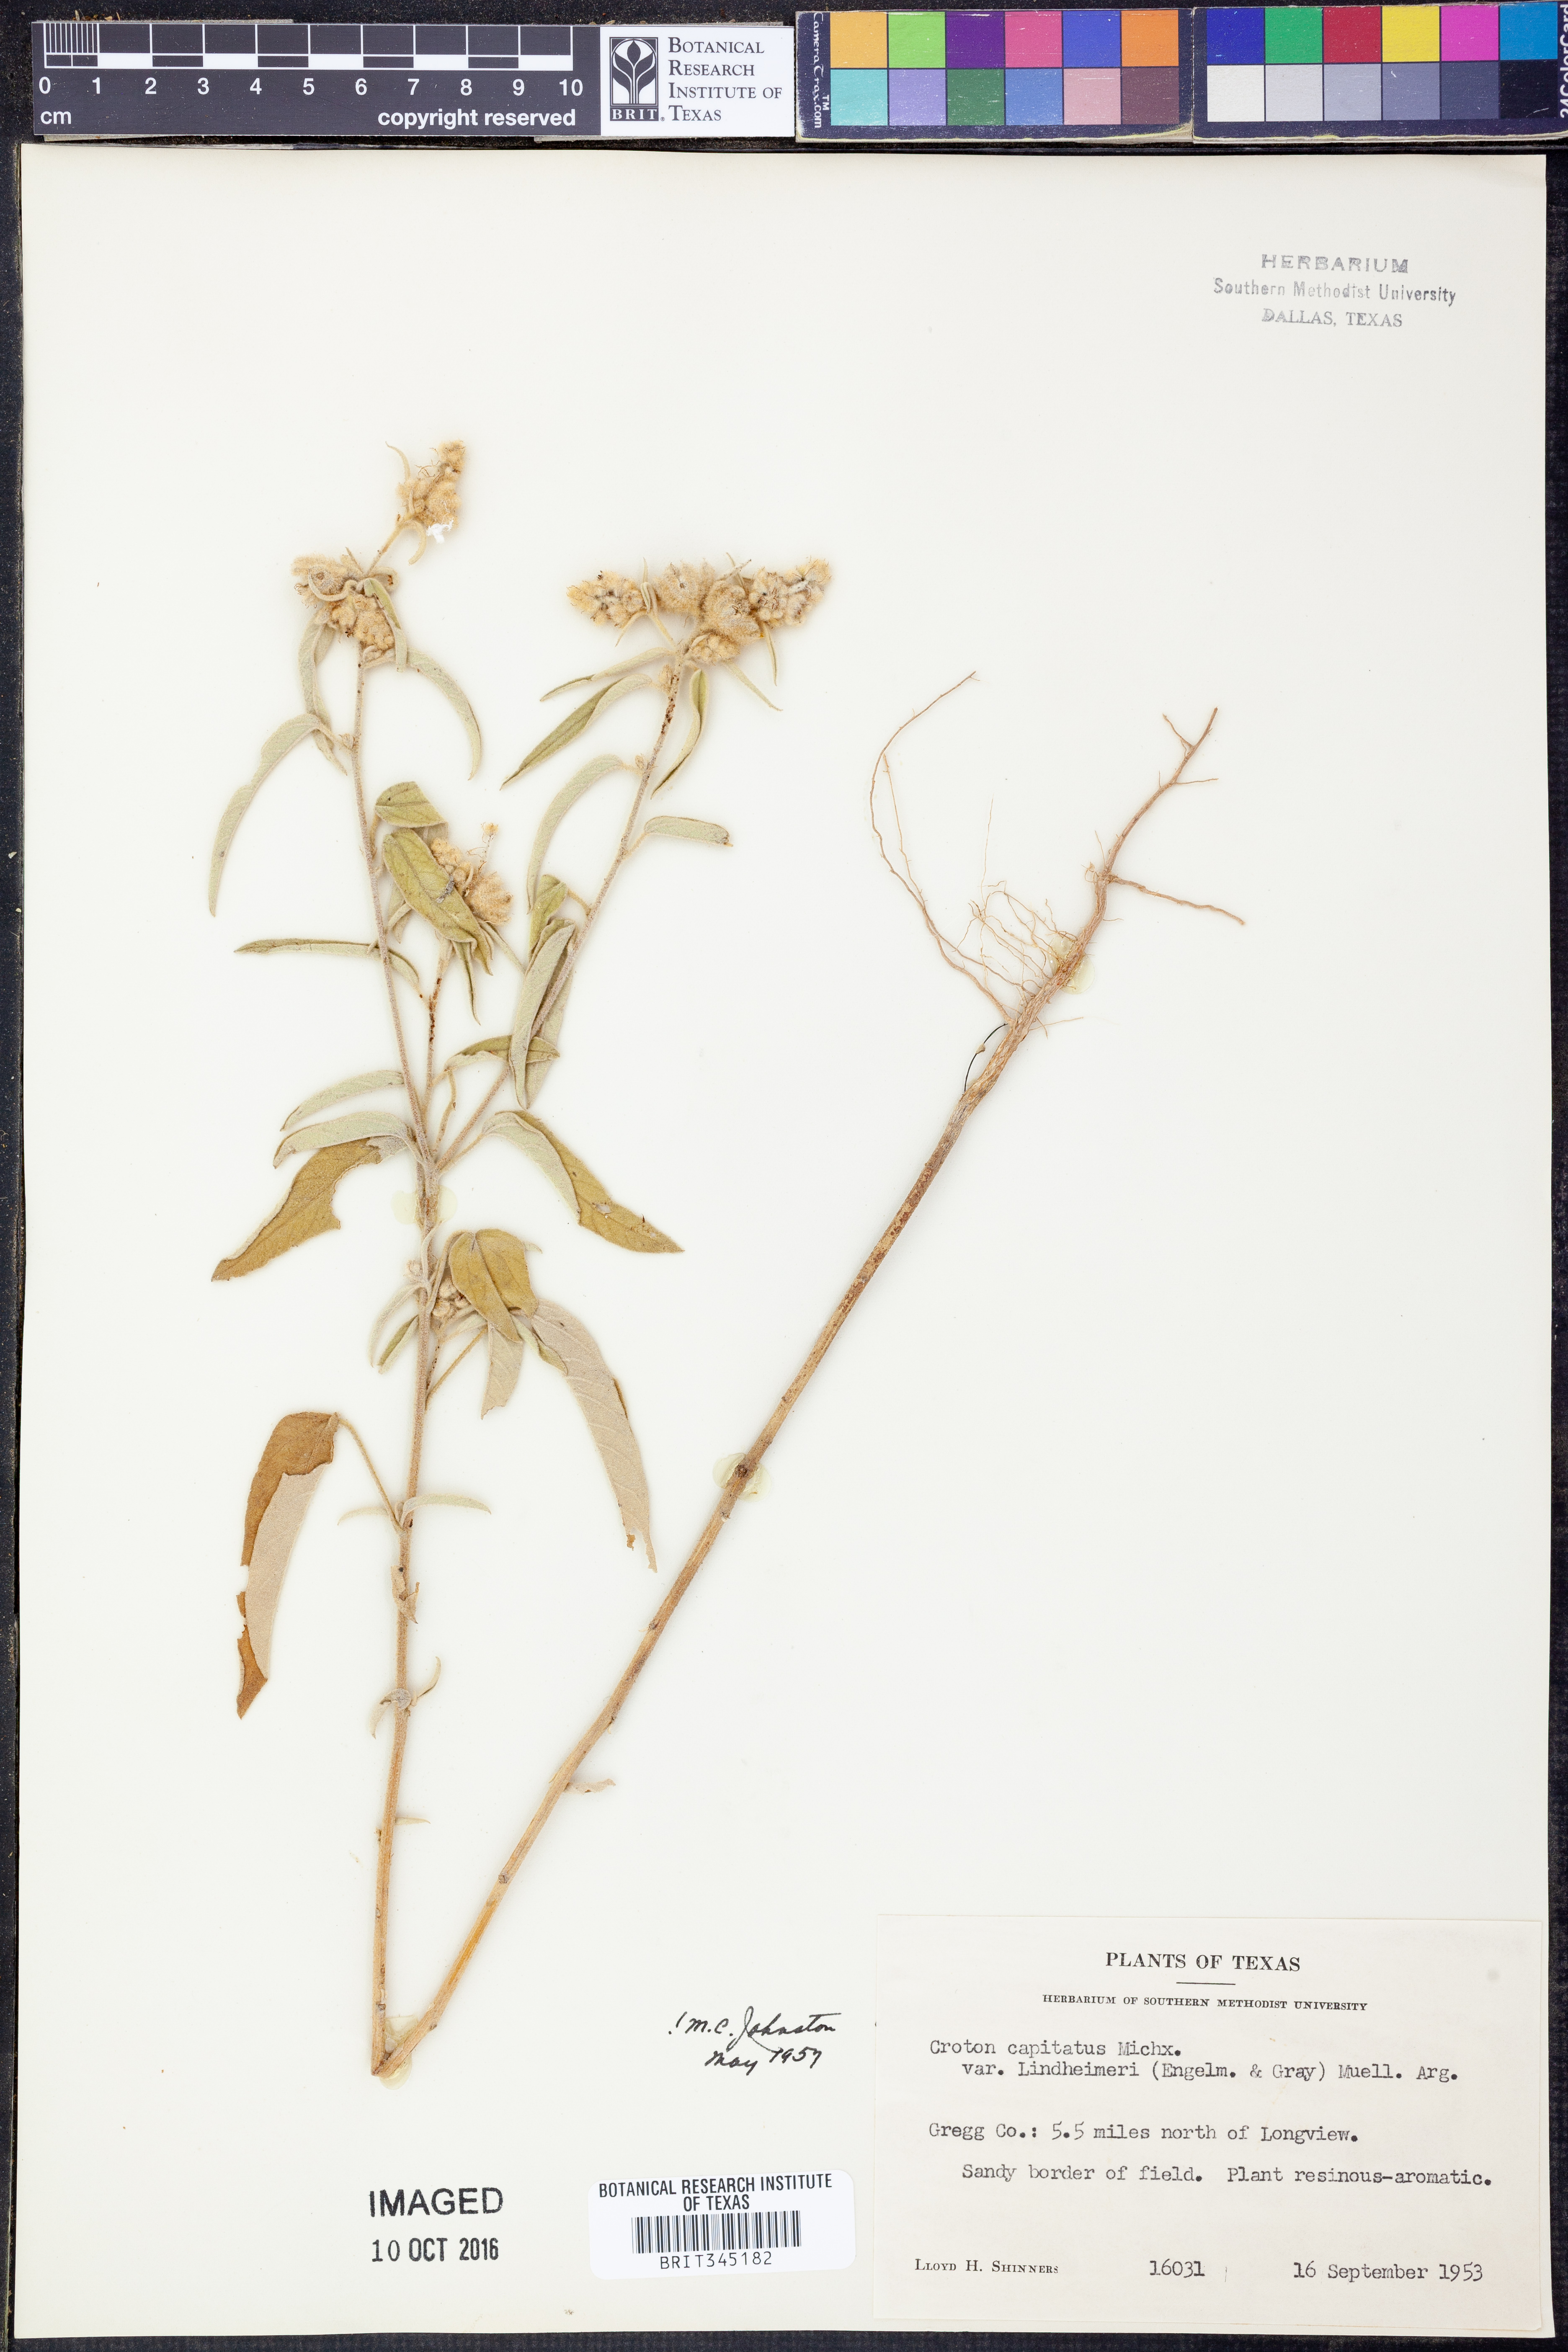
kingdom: Plantae
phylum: Tracheophyta
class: Magnoliopsida
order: Malpighiales
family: Euphorbiaceae
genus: Croton
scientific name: Croton lindheimeri
